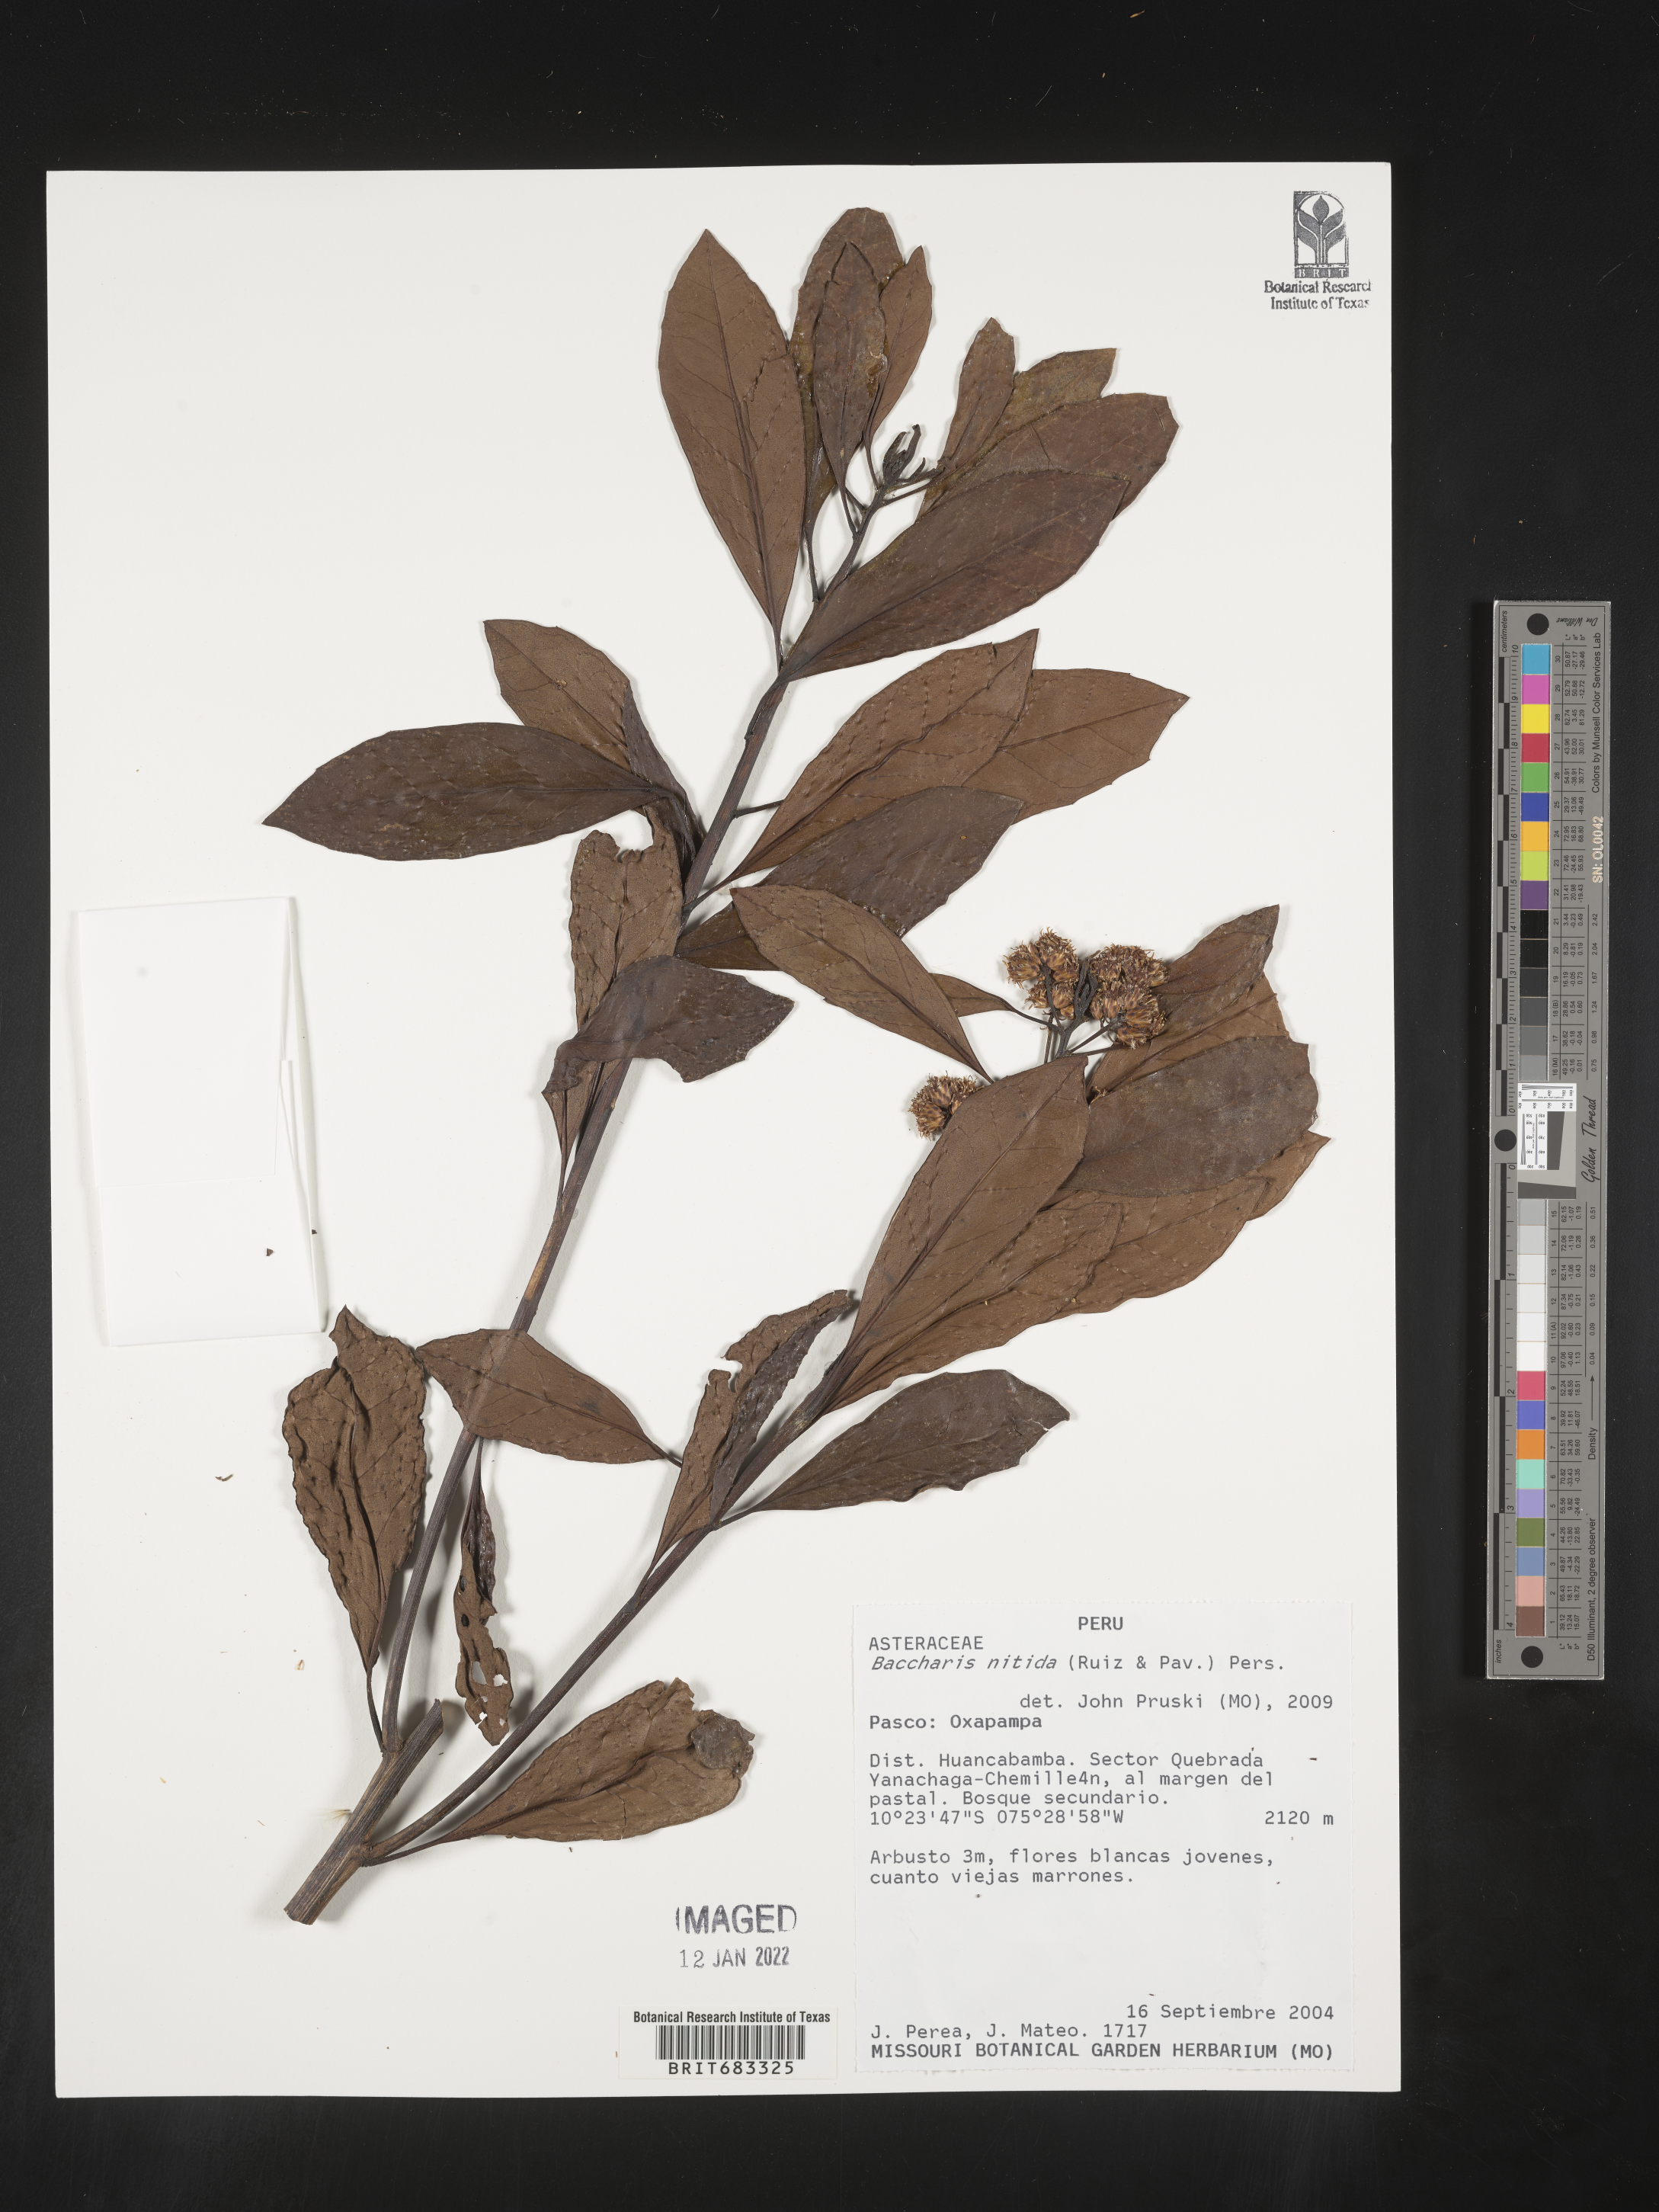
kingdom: Plantae
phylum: Tracheophyta
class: Magnoliopsida
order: Asterales
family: Asteraceae
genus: Baccharis
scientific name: Baccharis
